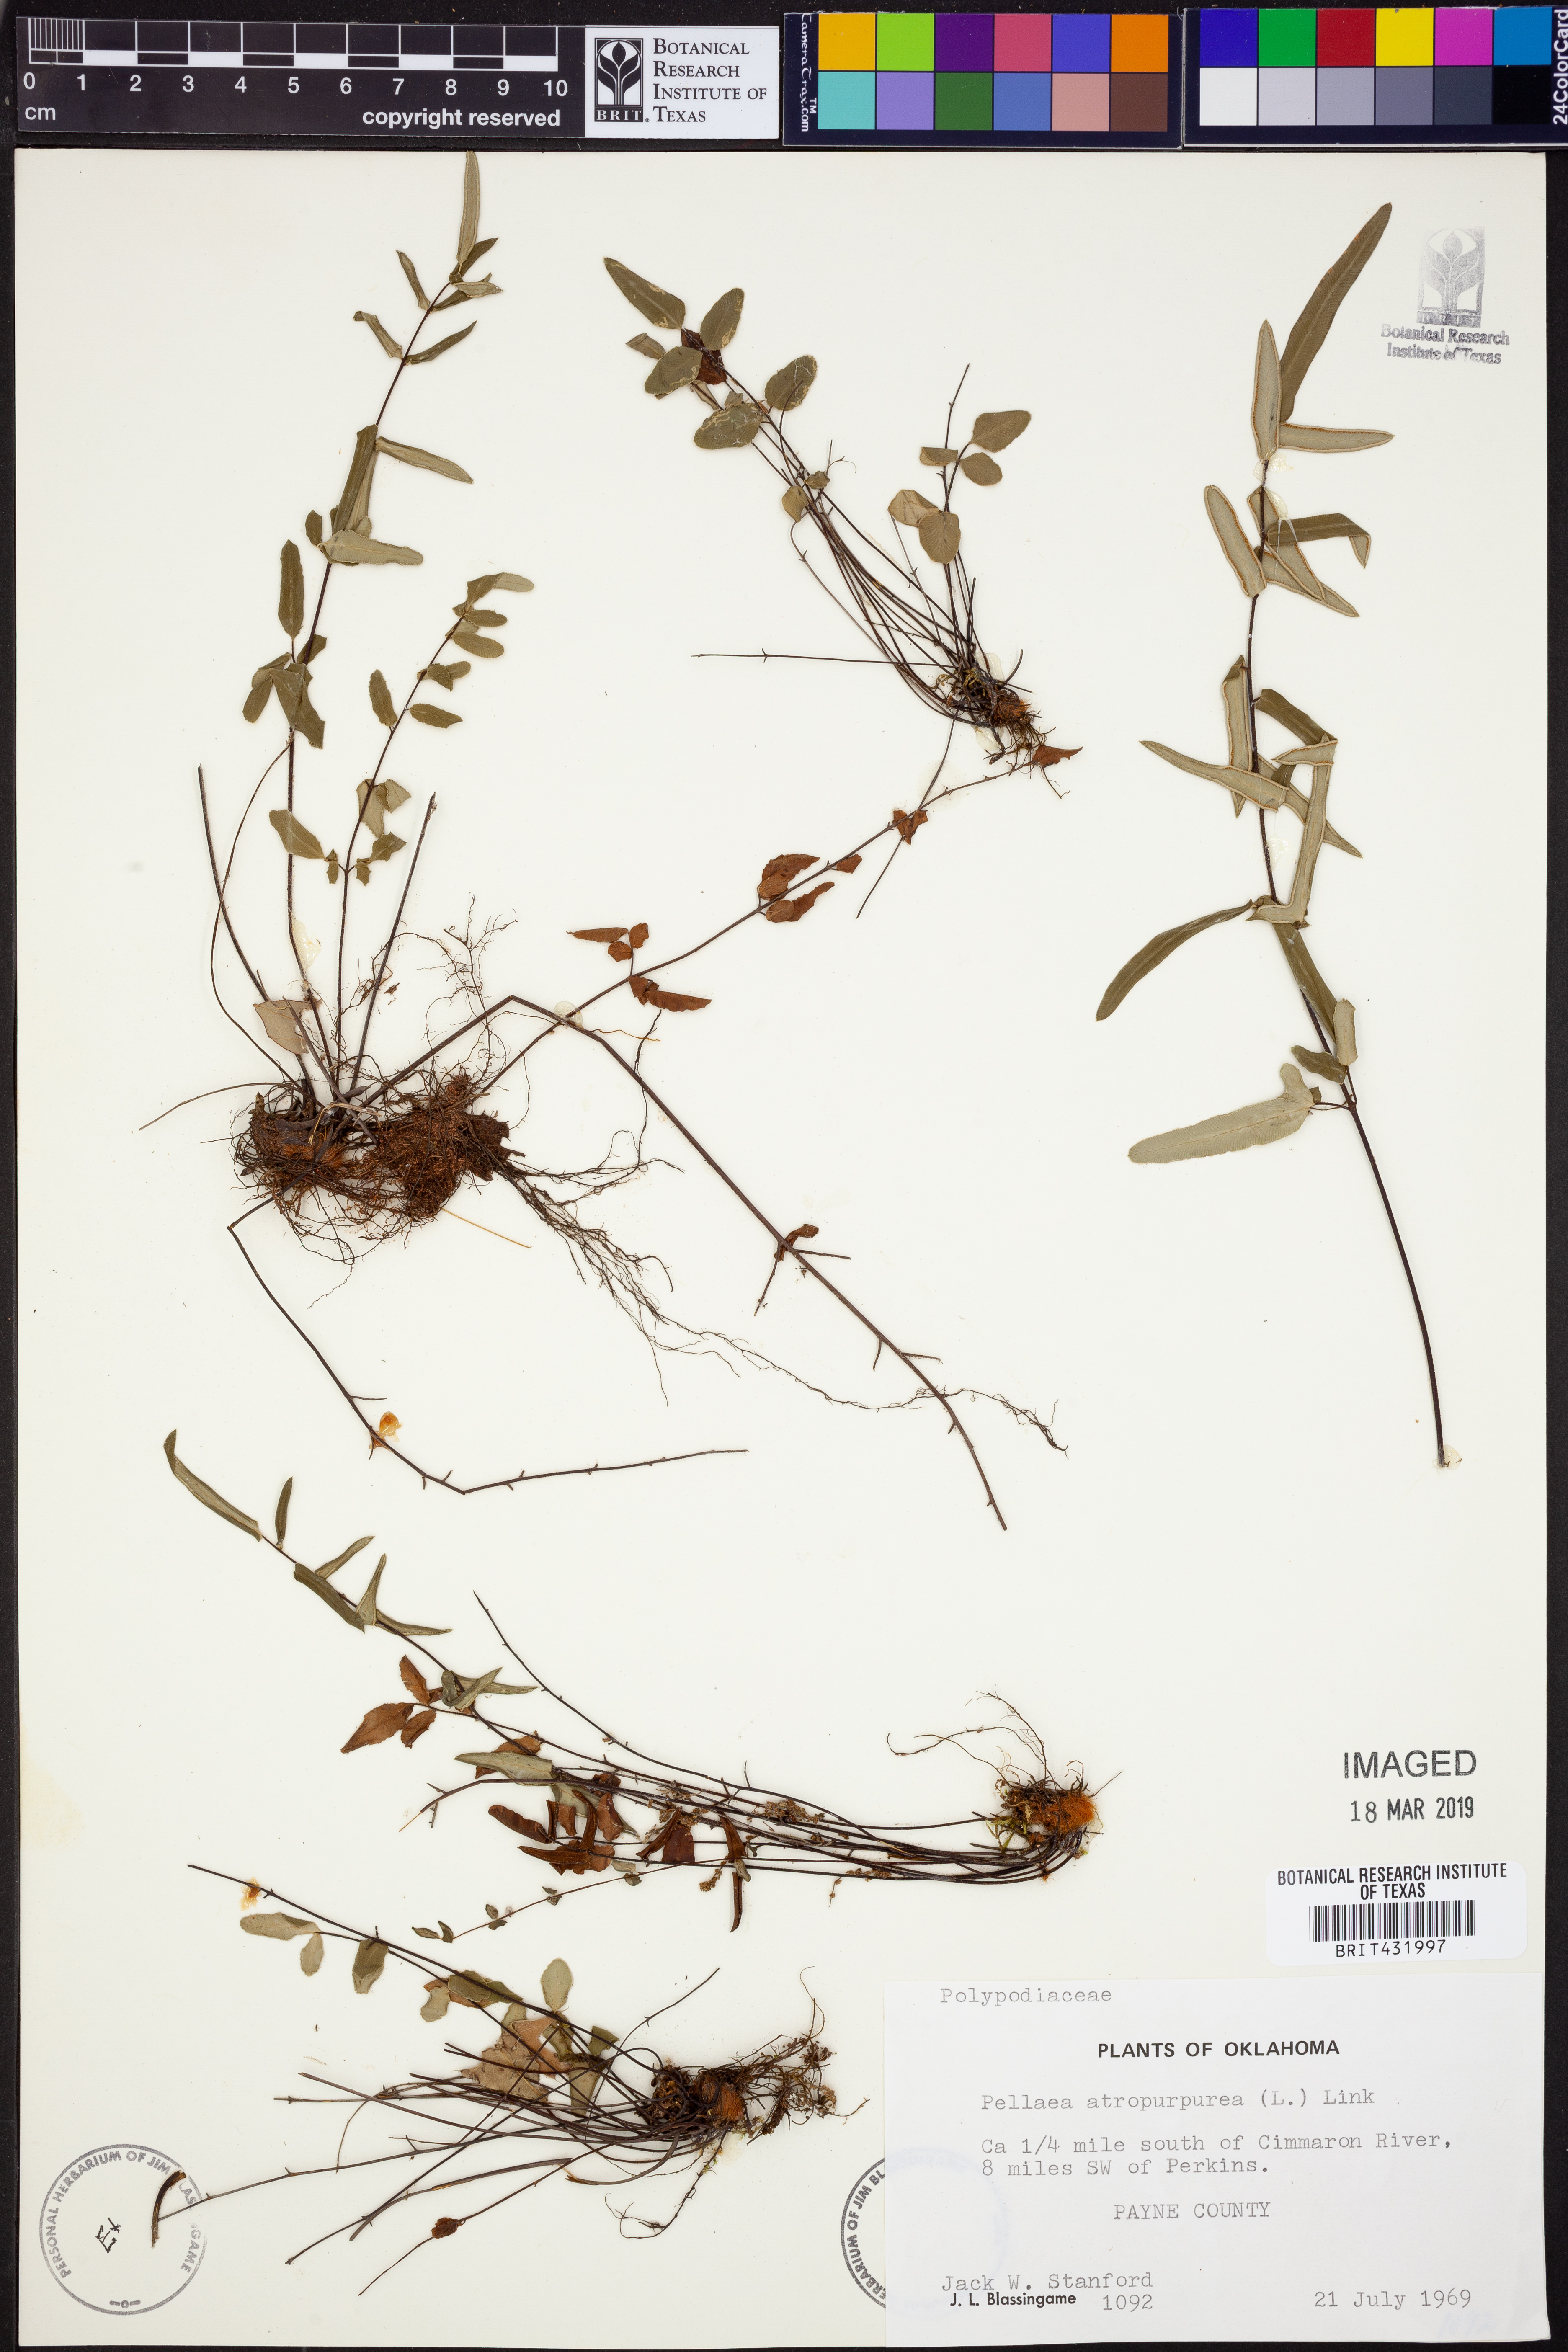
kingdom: Plantae
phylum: Tracheophyta
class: Polypodiopsida
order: Polypodiales
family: Pteridaceae
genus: Pellaea
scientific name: Pellaea atropurpurea
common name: Hairy cliffbrake
